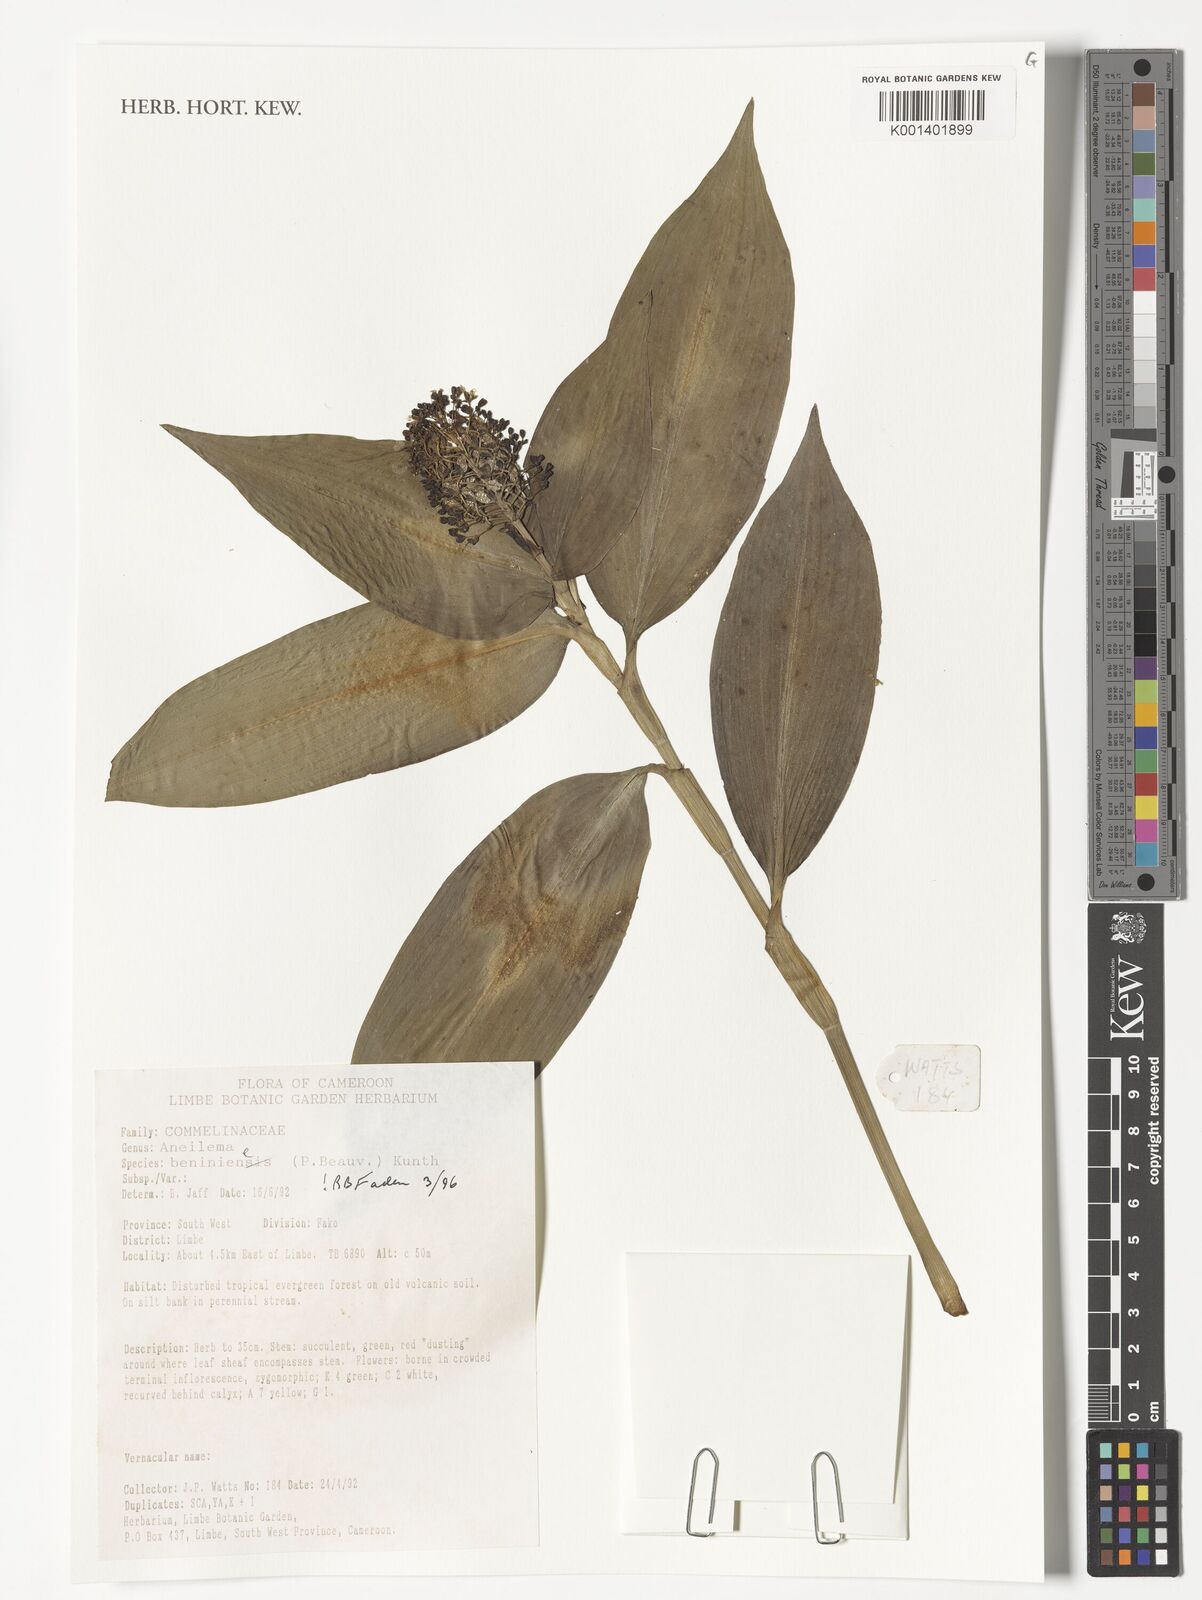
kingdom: Plantae
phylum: Tracheophyta
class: Liliopsida
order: Commelinales
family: Commelinaceae
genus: Aneilema
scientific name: Aneilema beniniense
